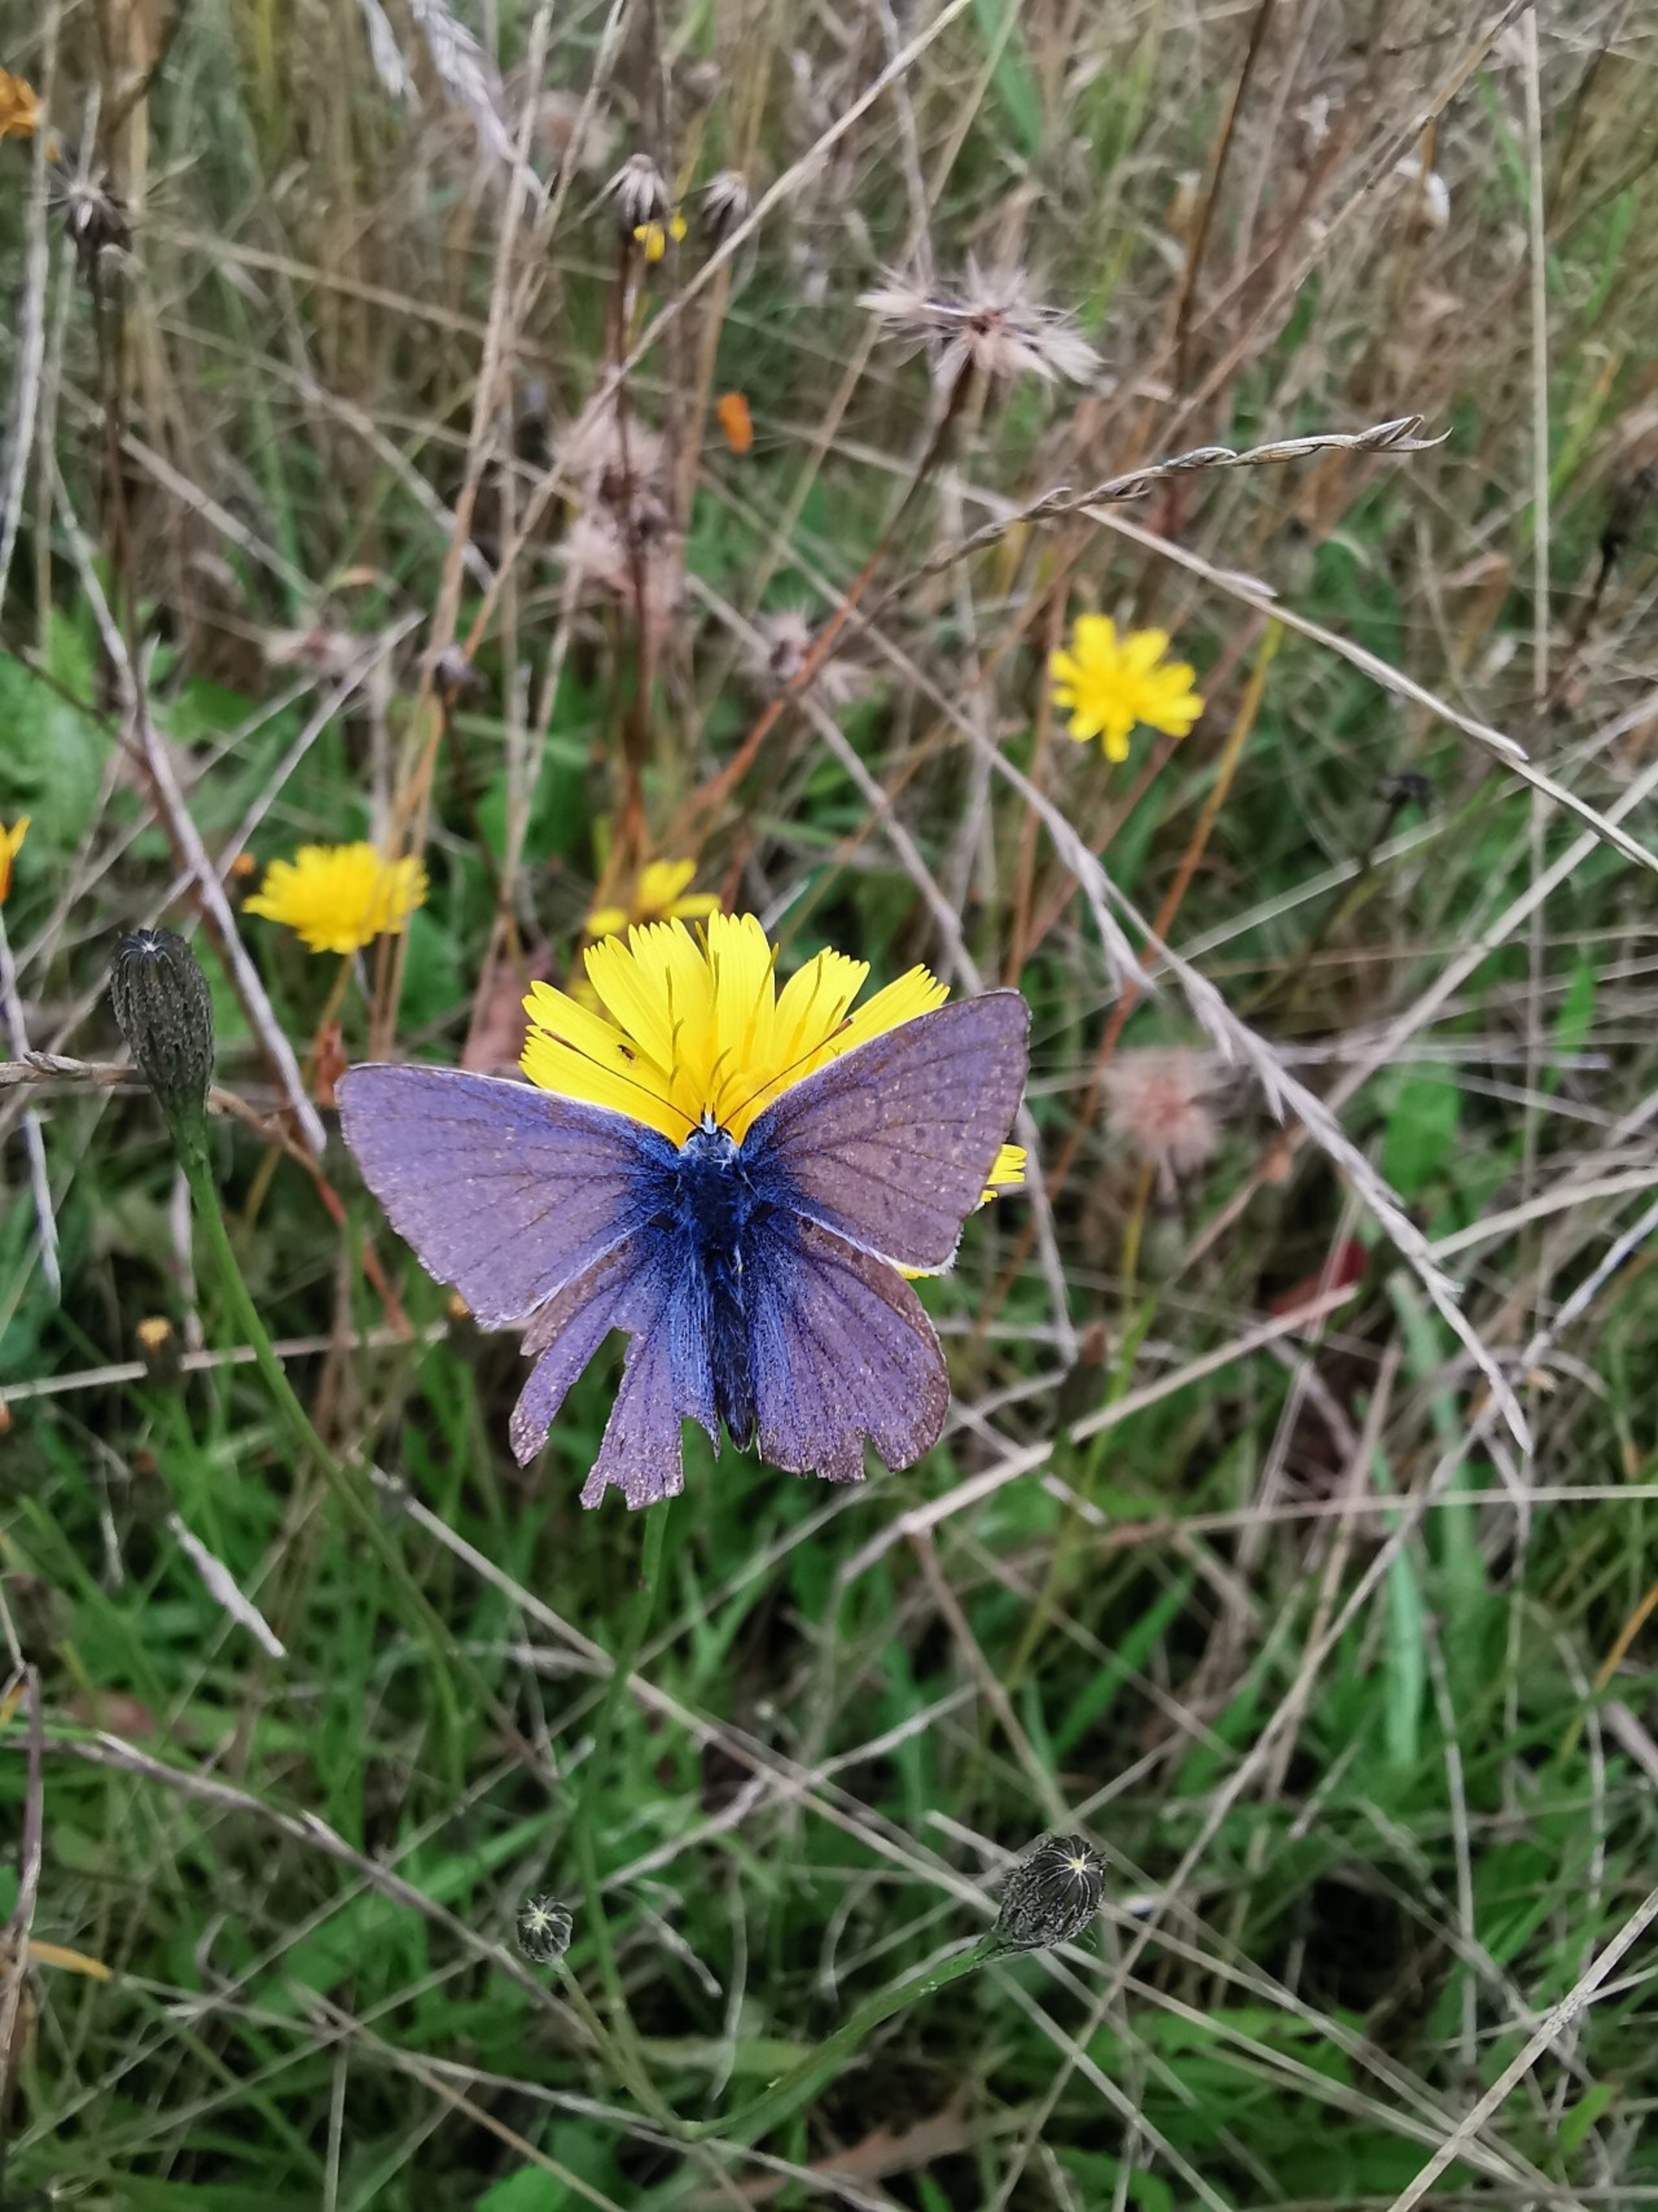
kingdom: Animalia
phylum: Arthropoda
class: Insecta
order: Lepidoptera
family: Lycaenidae
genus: Polyommatus
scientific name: Polyommatus icarus
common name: Almindelig blåfugl
